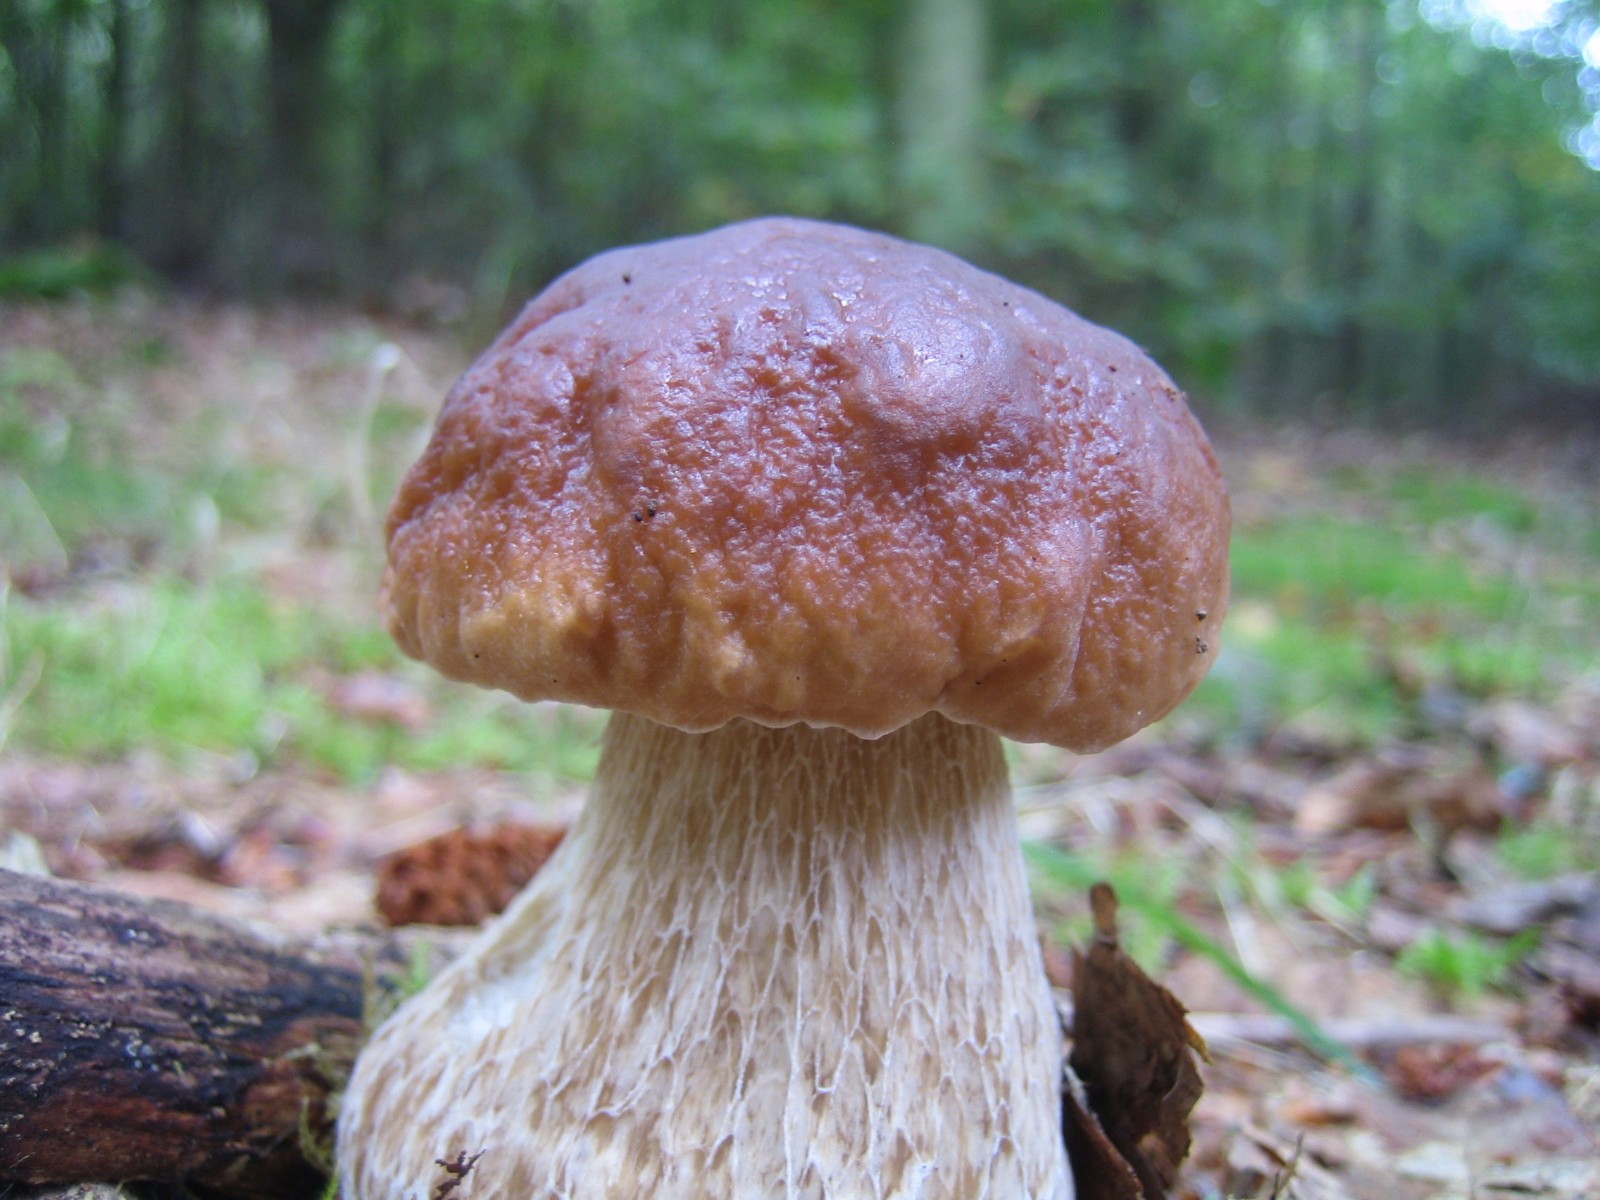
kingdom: Fungi
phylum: Basidiomycota
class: Agaricomycetes
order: Boletales
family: Boletaceae
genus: Boletus
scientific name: Boletus edulis
